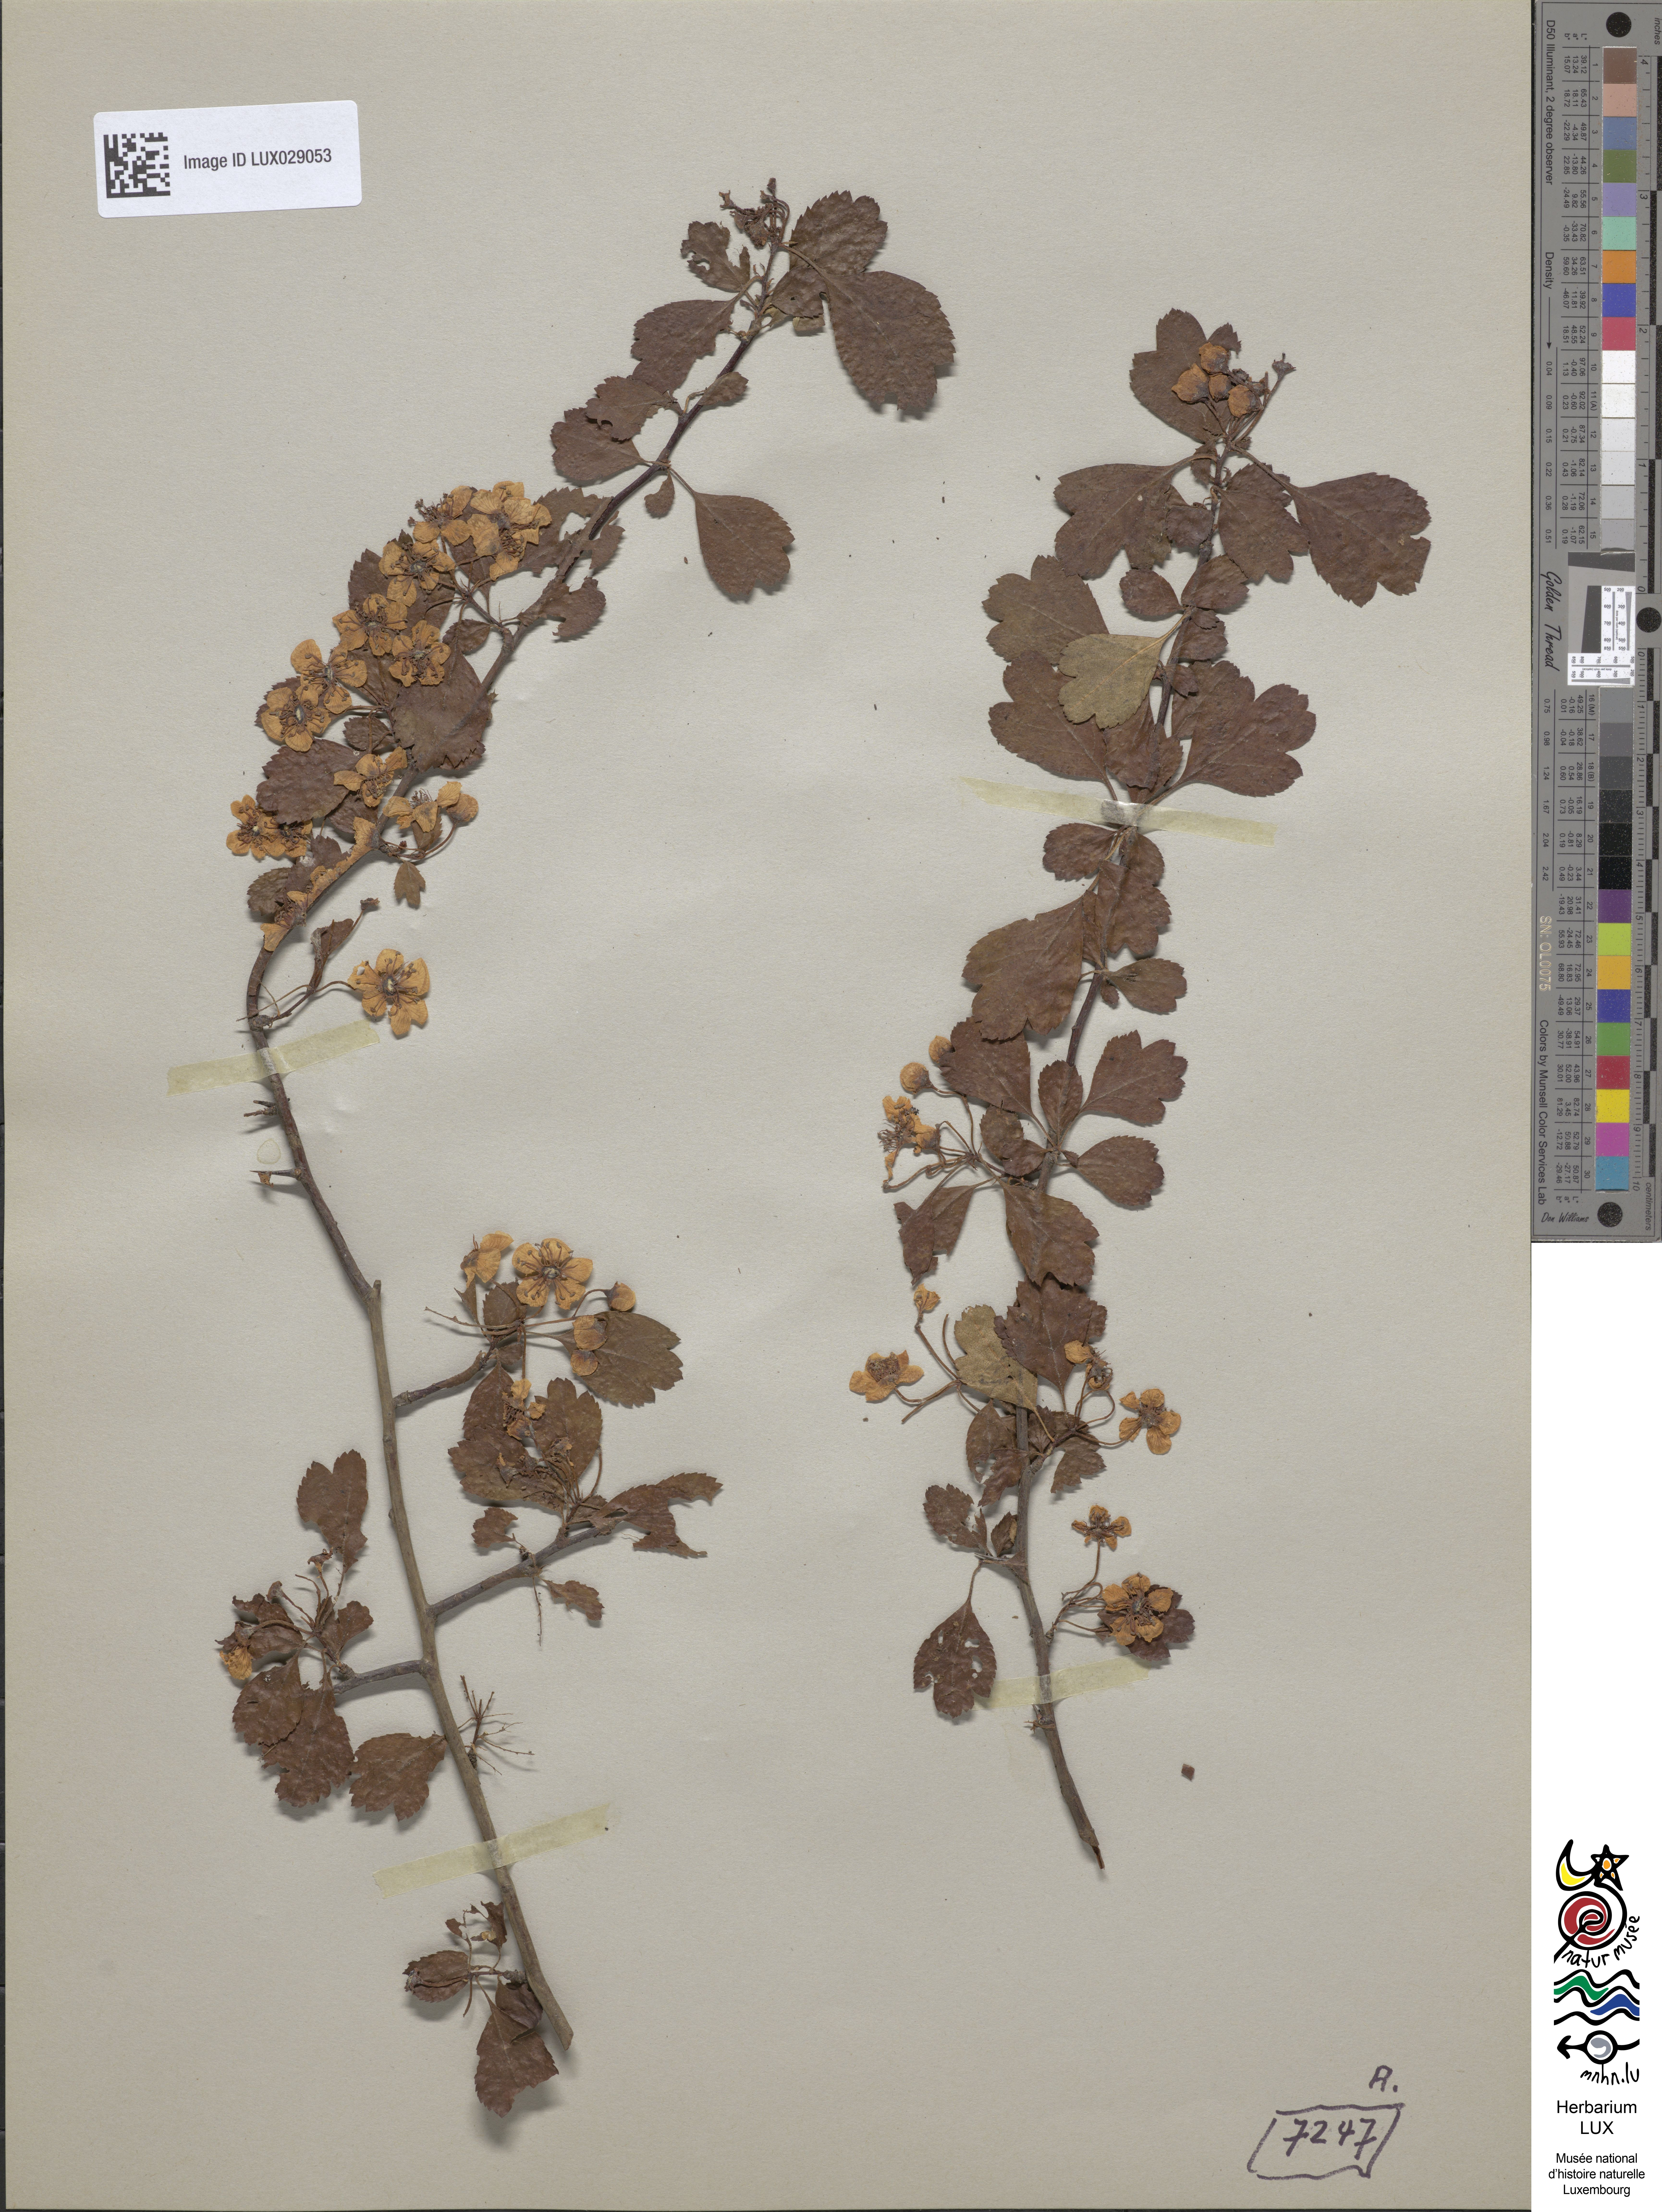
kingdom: Plantae
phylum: Tracheophyta
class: Magnoliopsida
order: Rosales
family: Rosaceae
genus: Crataegus
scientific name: Crataegus monogyna
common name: Hawthorn
